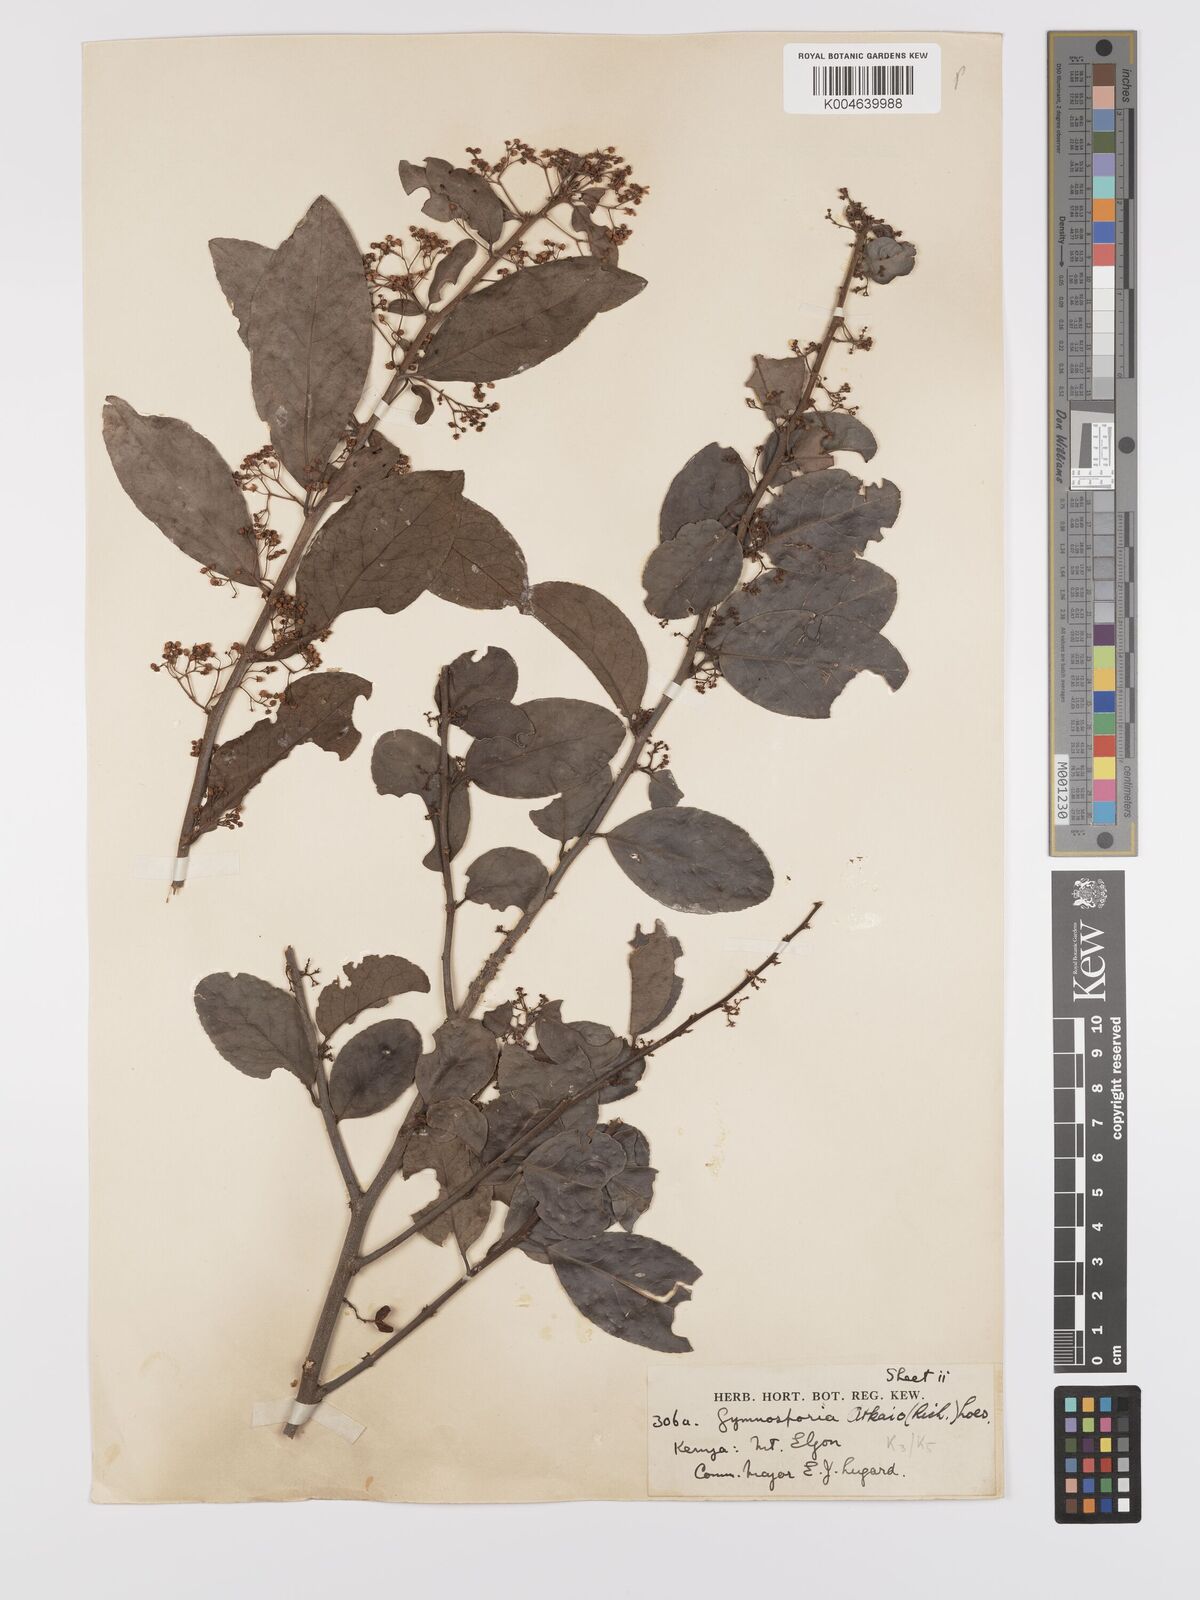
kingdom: Plantae
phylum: Tracheophyta
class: Magnoliopsida
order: Celastrales
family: Celastraceae
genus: Gymnosporia
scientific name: Gymnosporia arbutifolia
